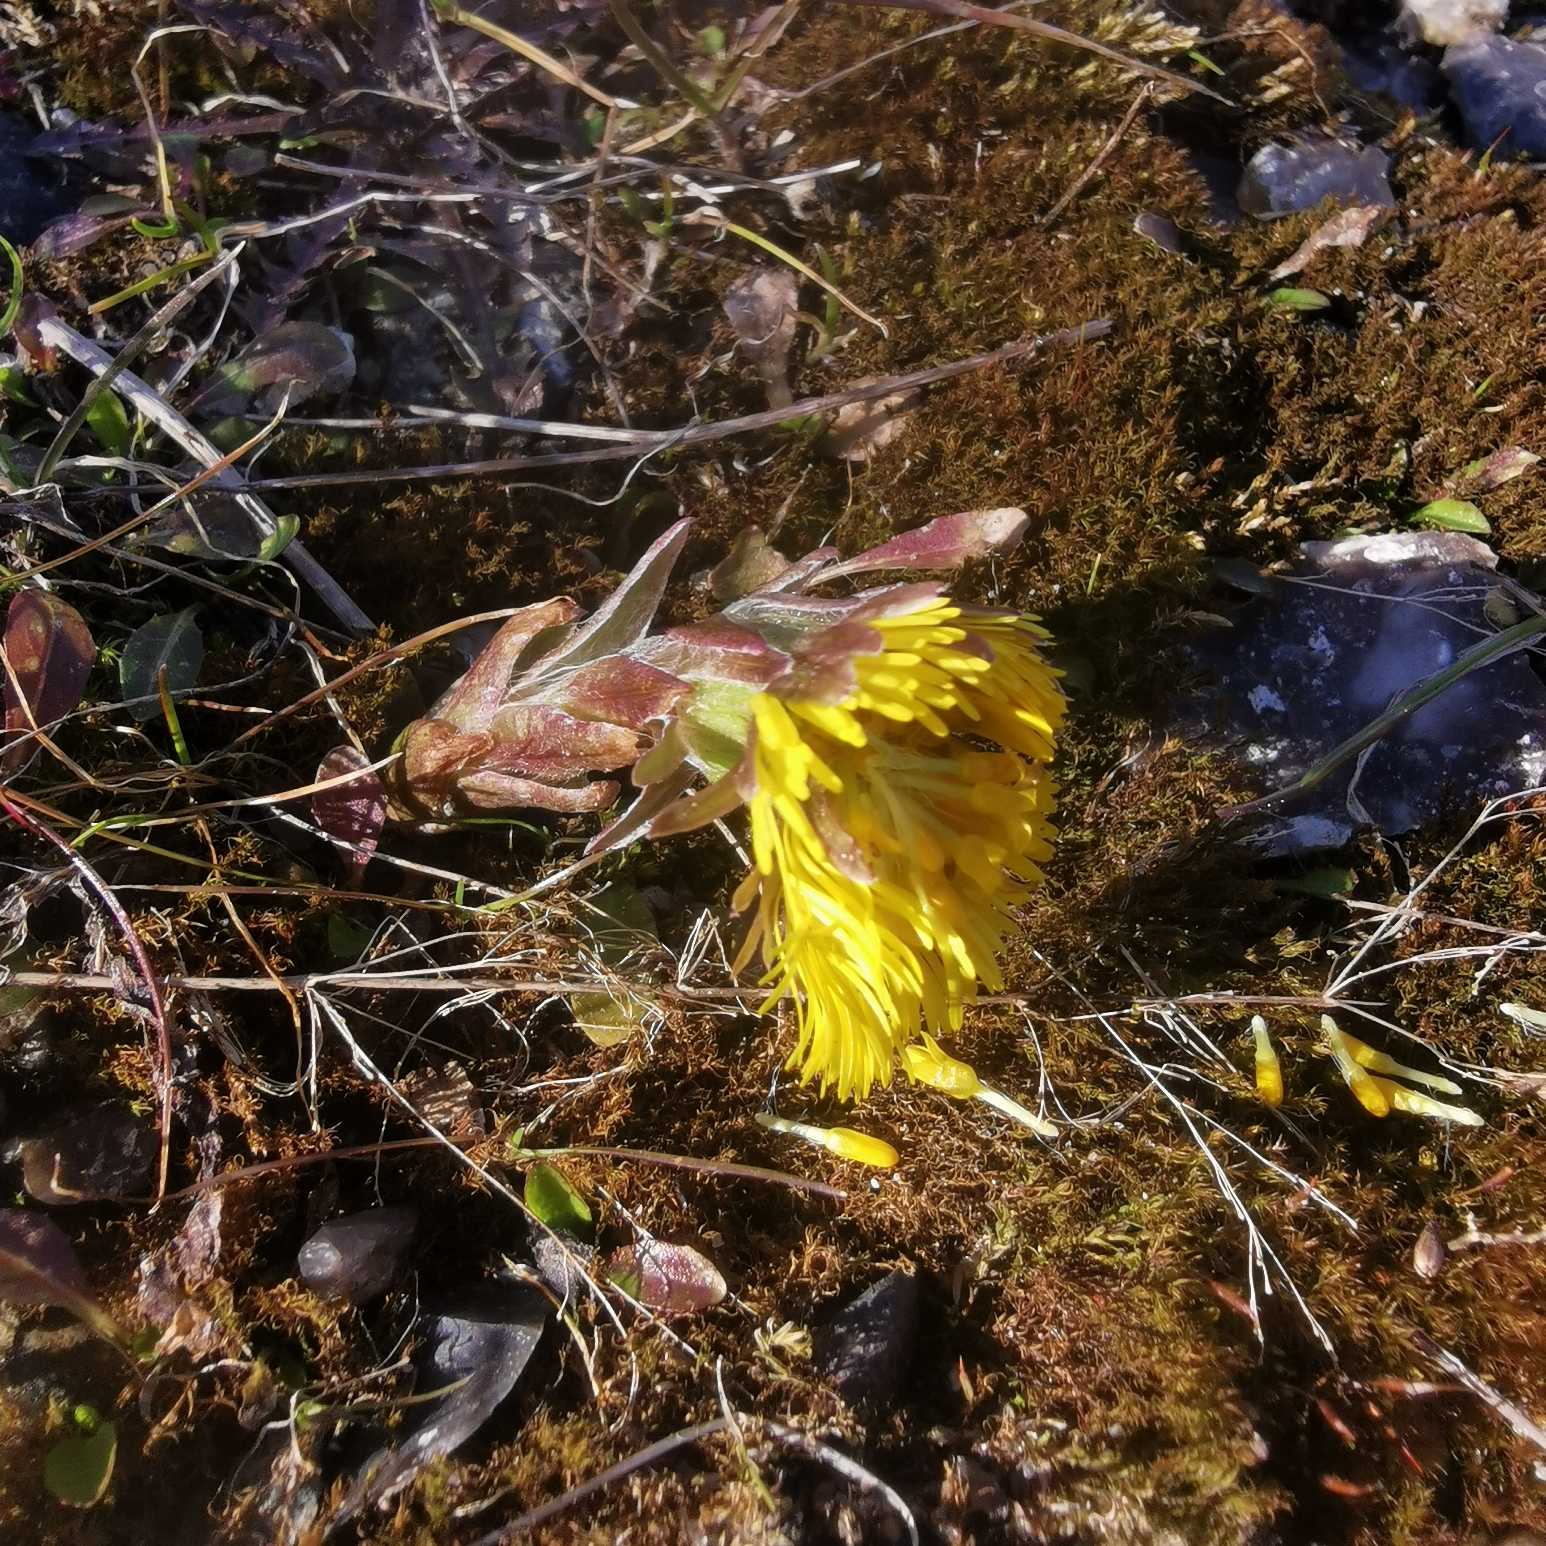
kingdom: Plantae
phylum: Tracheophyta
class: Magnoliopsida
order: Asterales
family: Asteraceae
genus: Tussilago
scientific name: Tussilago farfara
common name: Følfod
